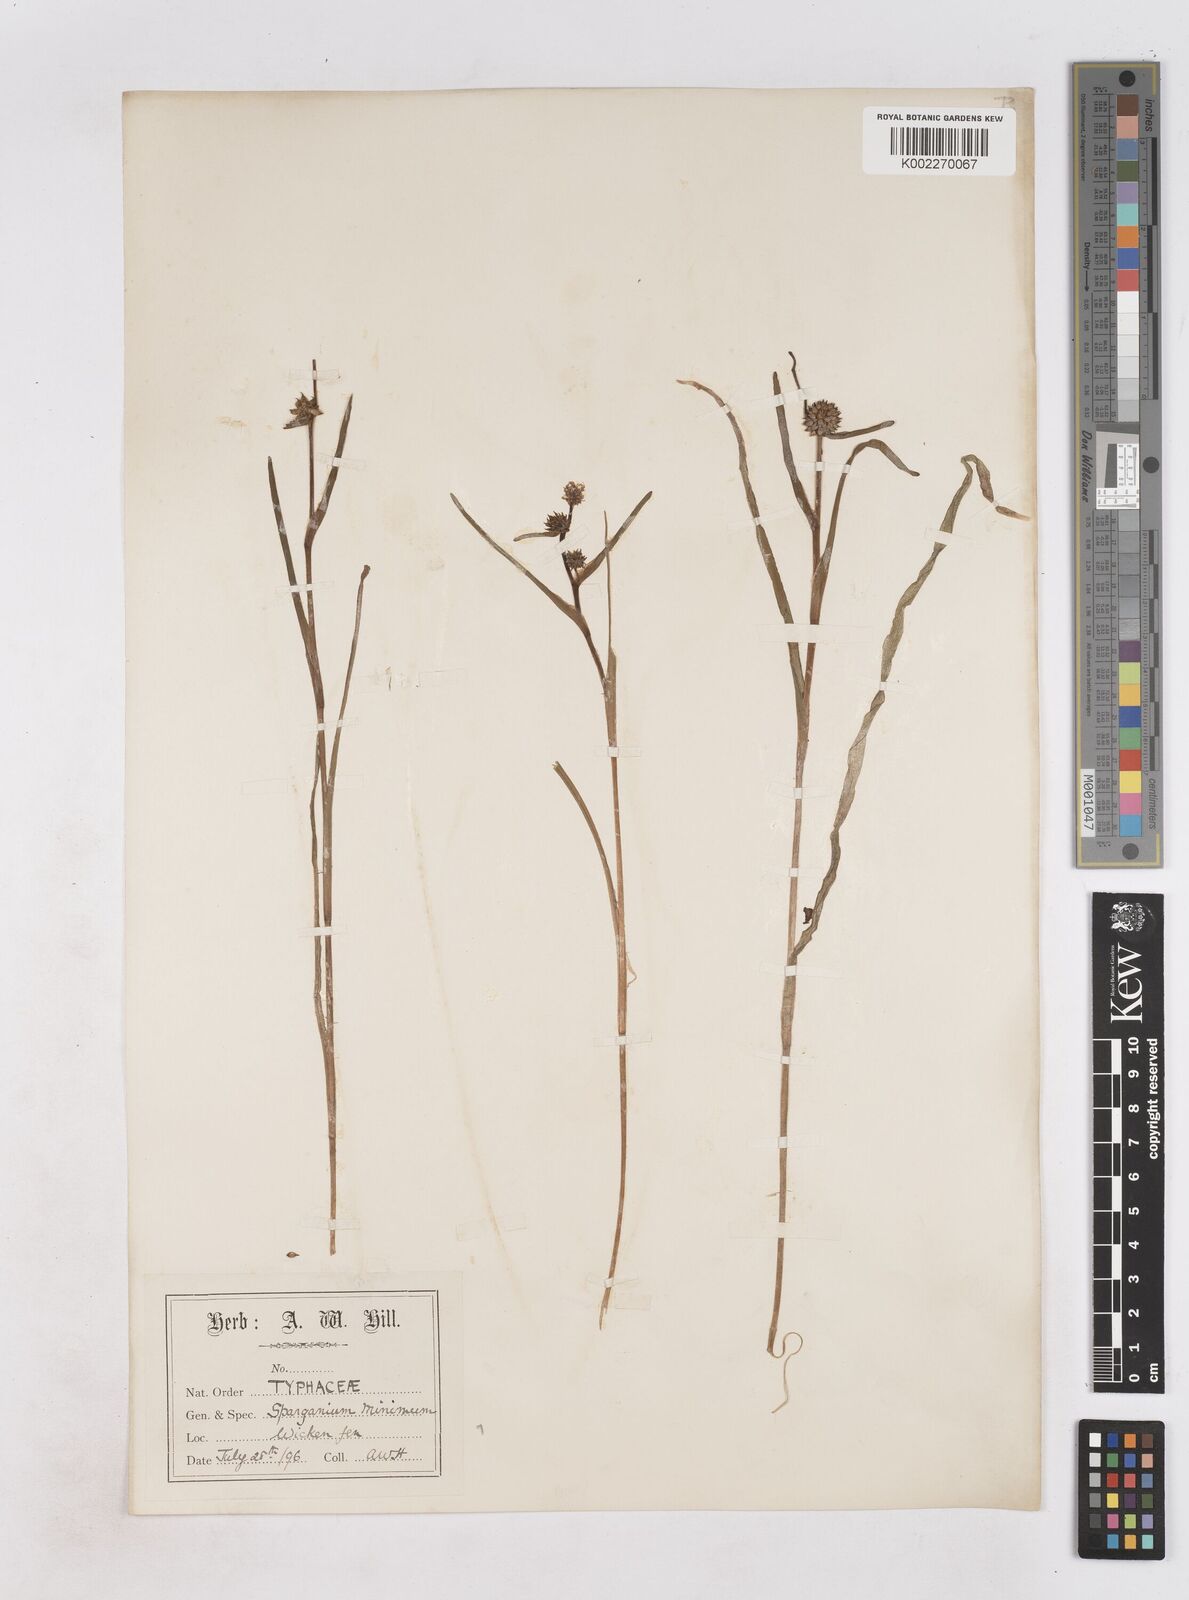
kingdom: Plantae
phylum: Tracheophyta
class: Liliopsida
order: Poales
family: Typhaceae
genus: Sparganium
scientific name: Sparganium natans
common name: Least bur-reed
